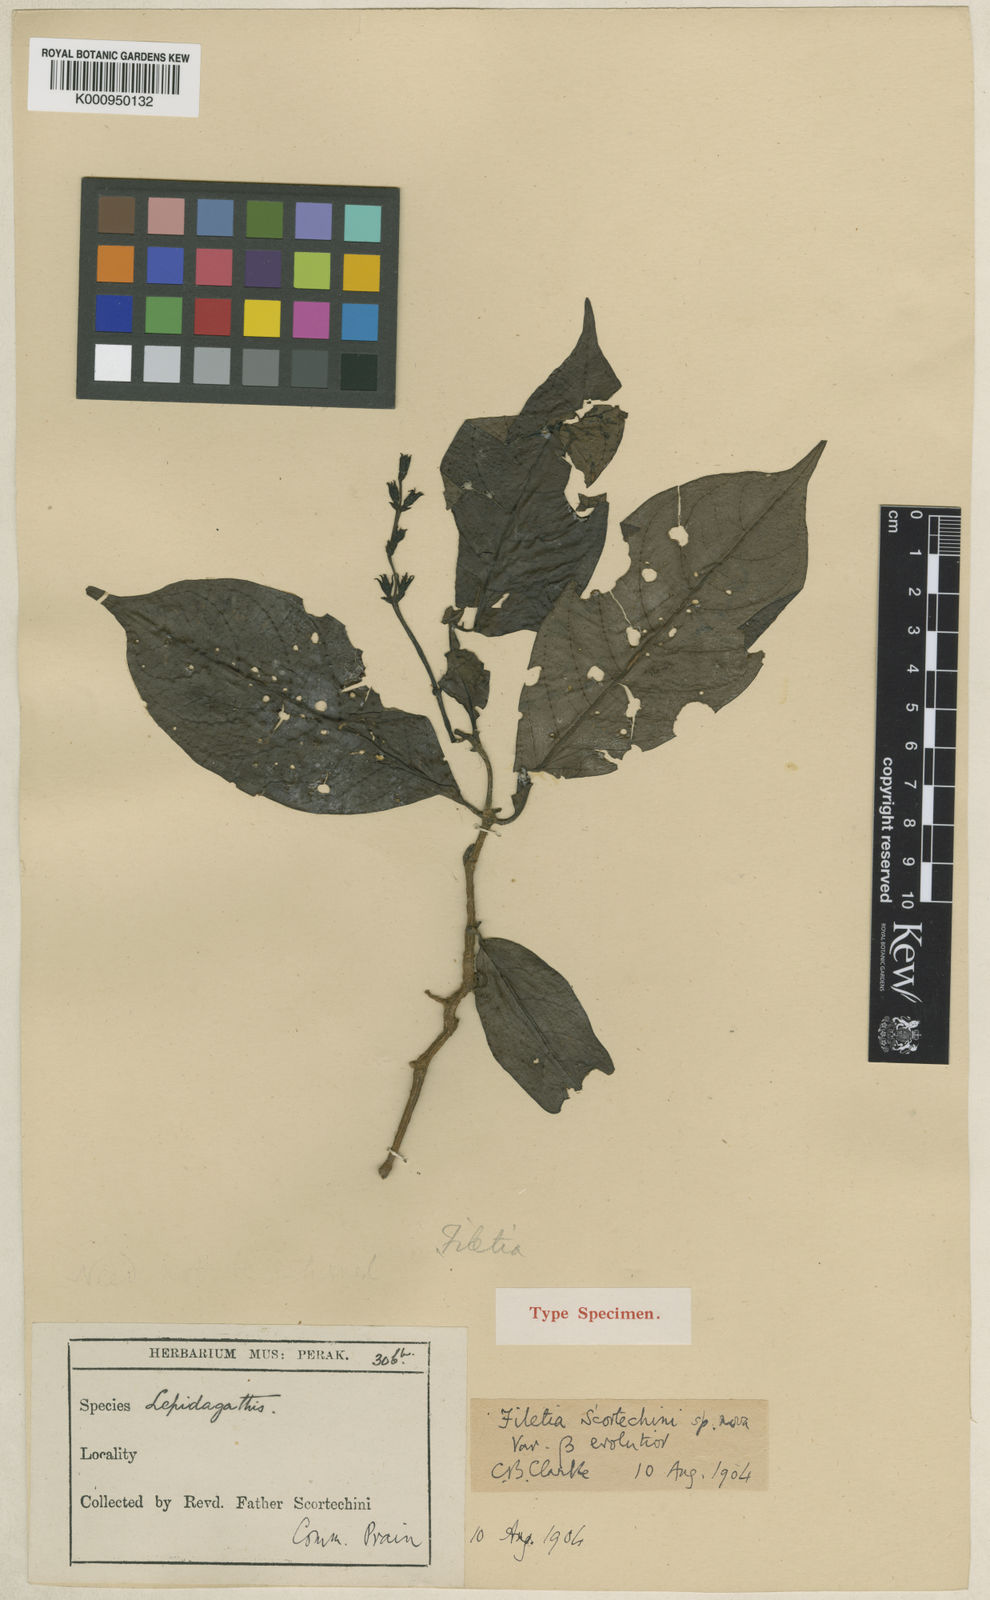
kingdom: Plantae
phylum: Tracheophyta
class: Magnoliopsida
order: Lamiales
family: Acanthaceae
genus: Filetia
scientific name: Filetia scortechinii
